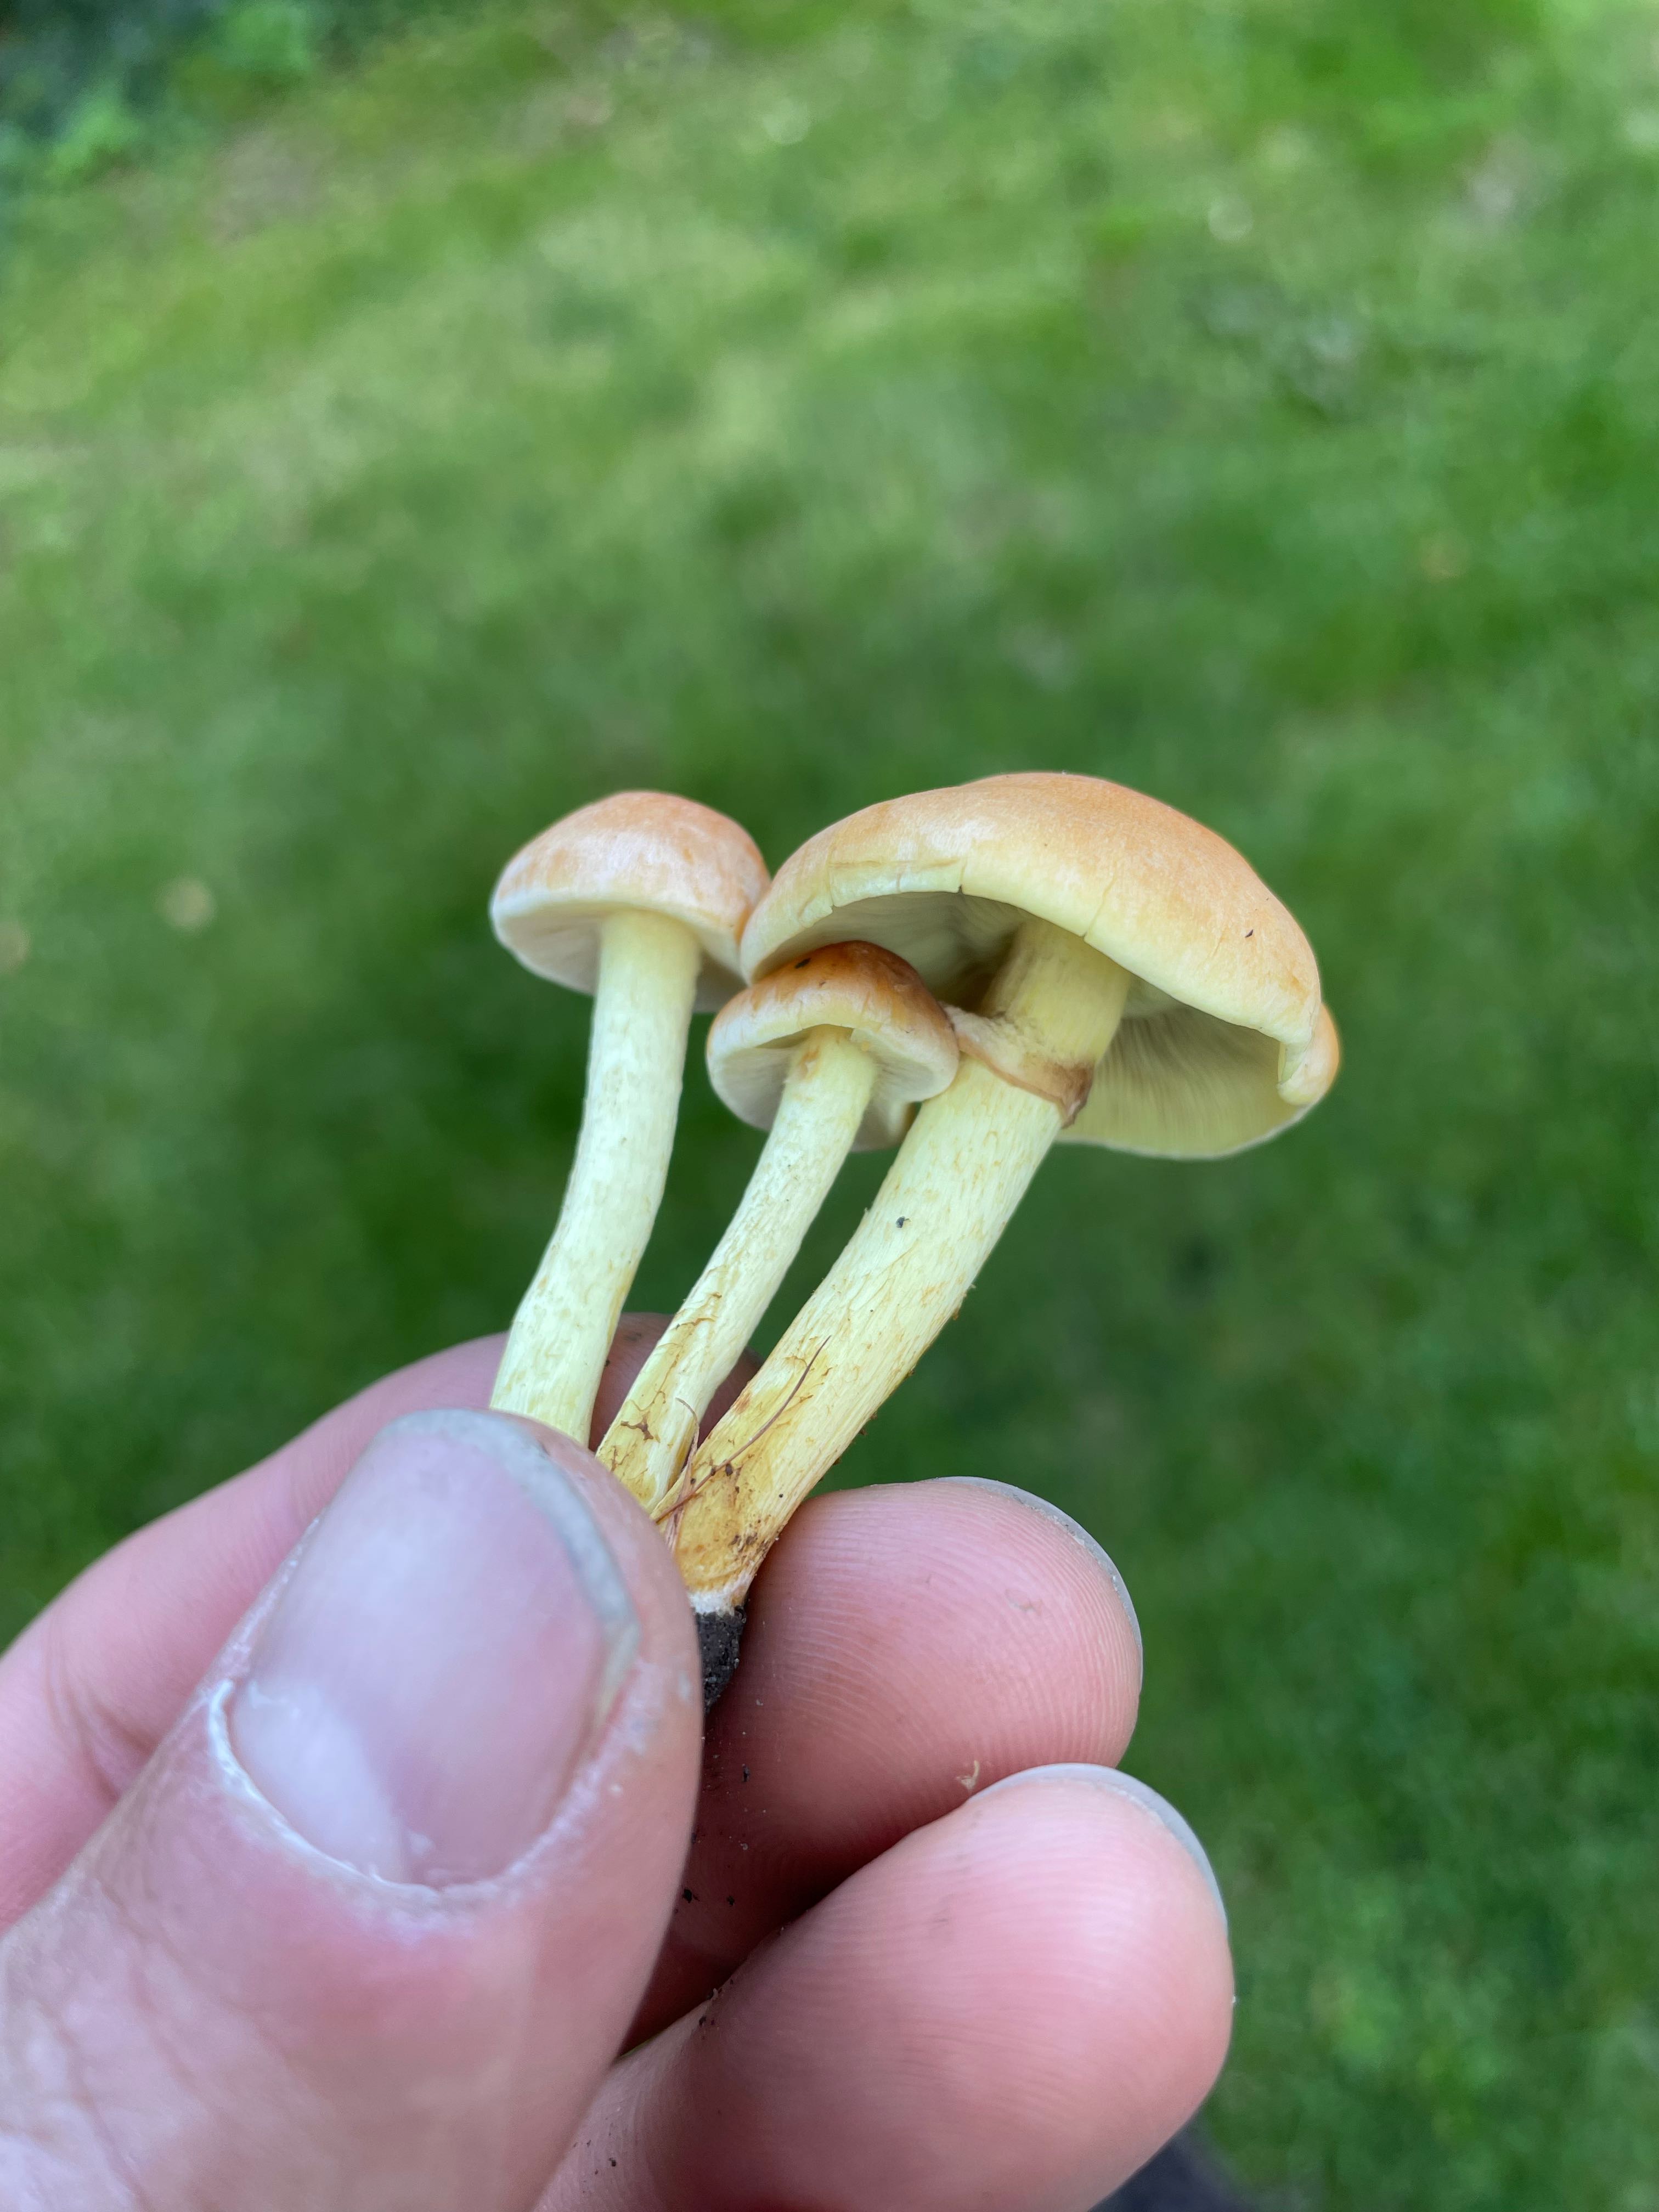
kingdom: Fungi
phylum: Basidiomycota
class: Agaricomycetes
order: Agaricales
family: Strophariaceae
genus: Hypholoma
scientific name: Hypholoma fasciculare
